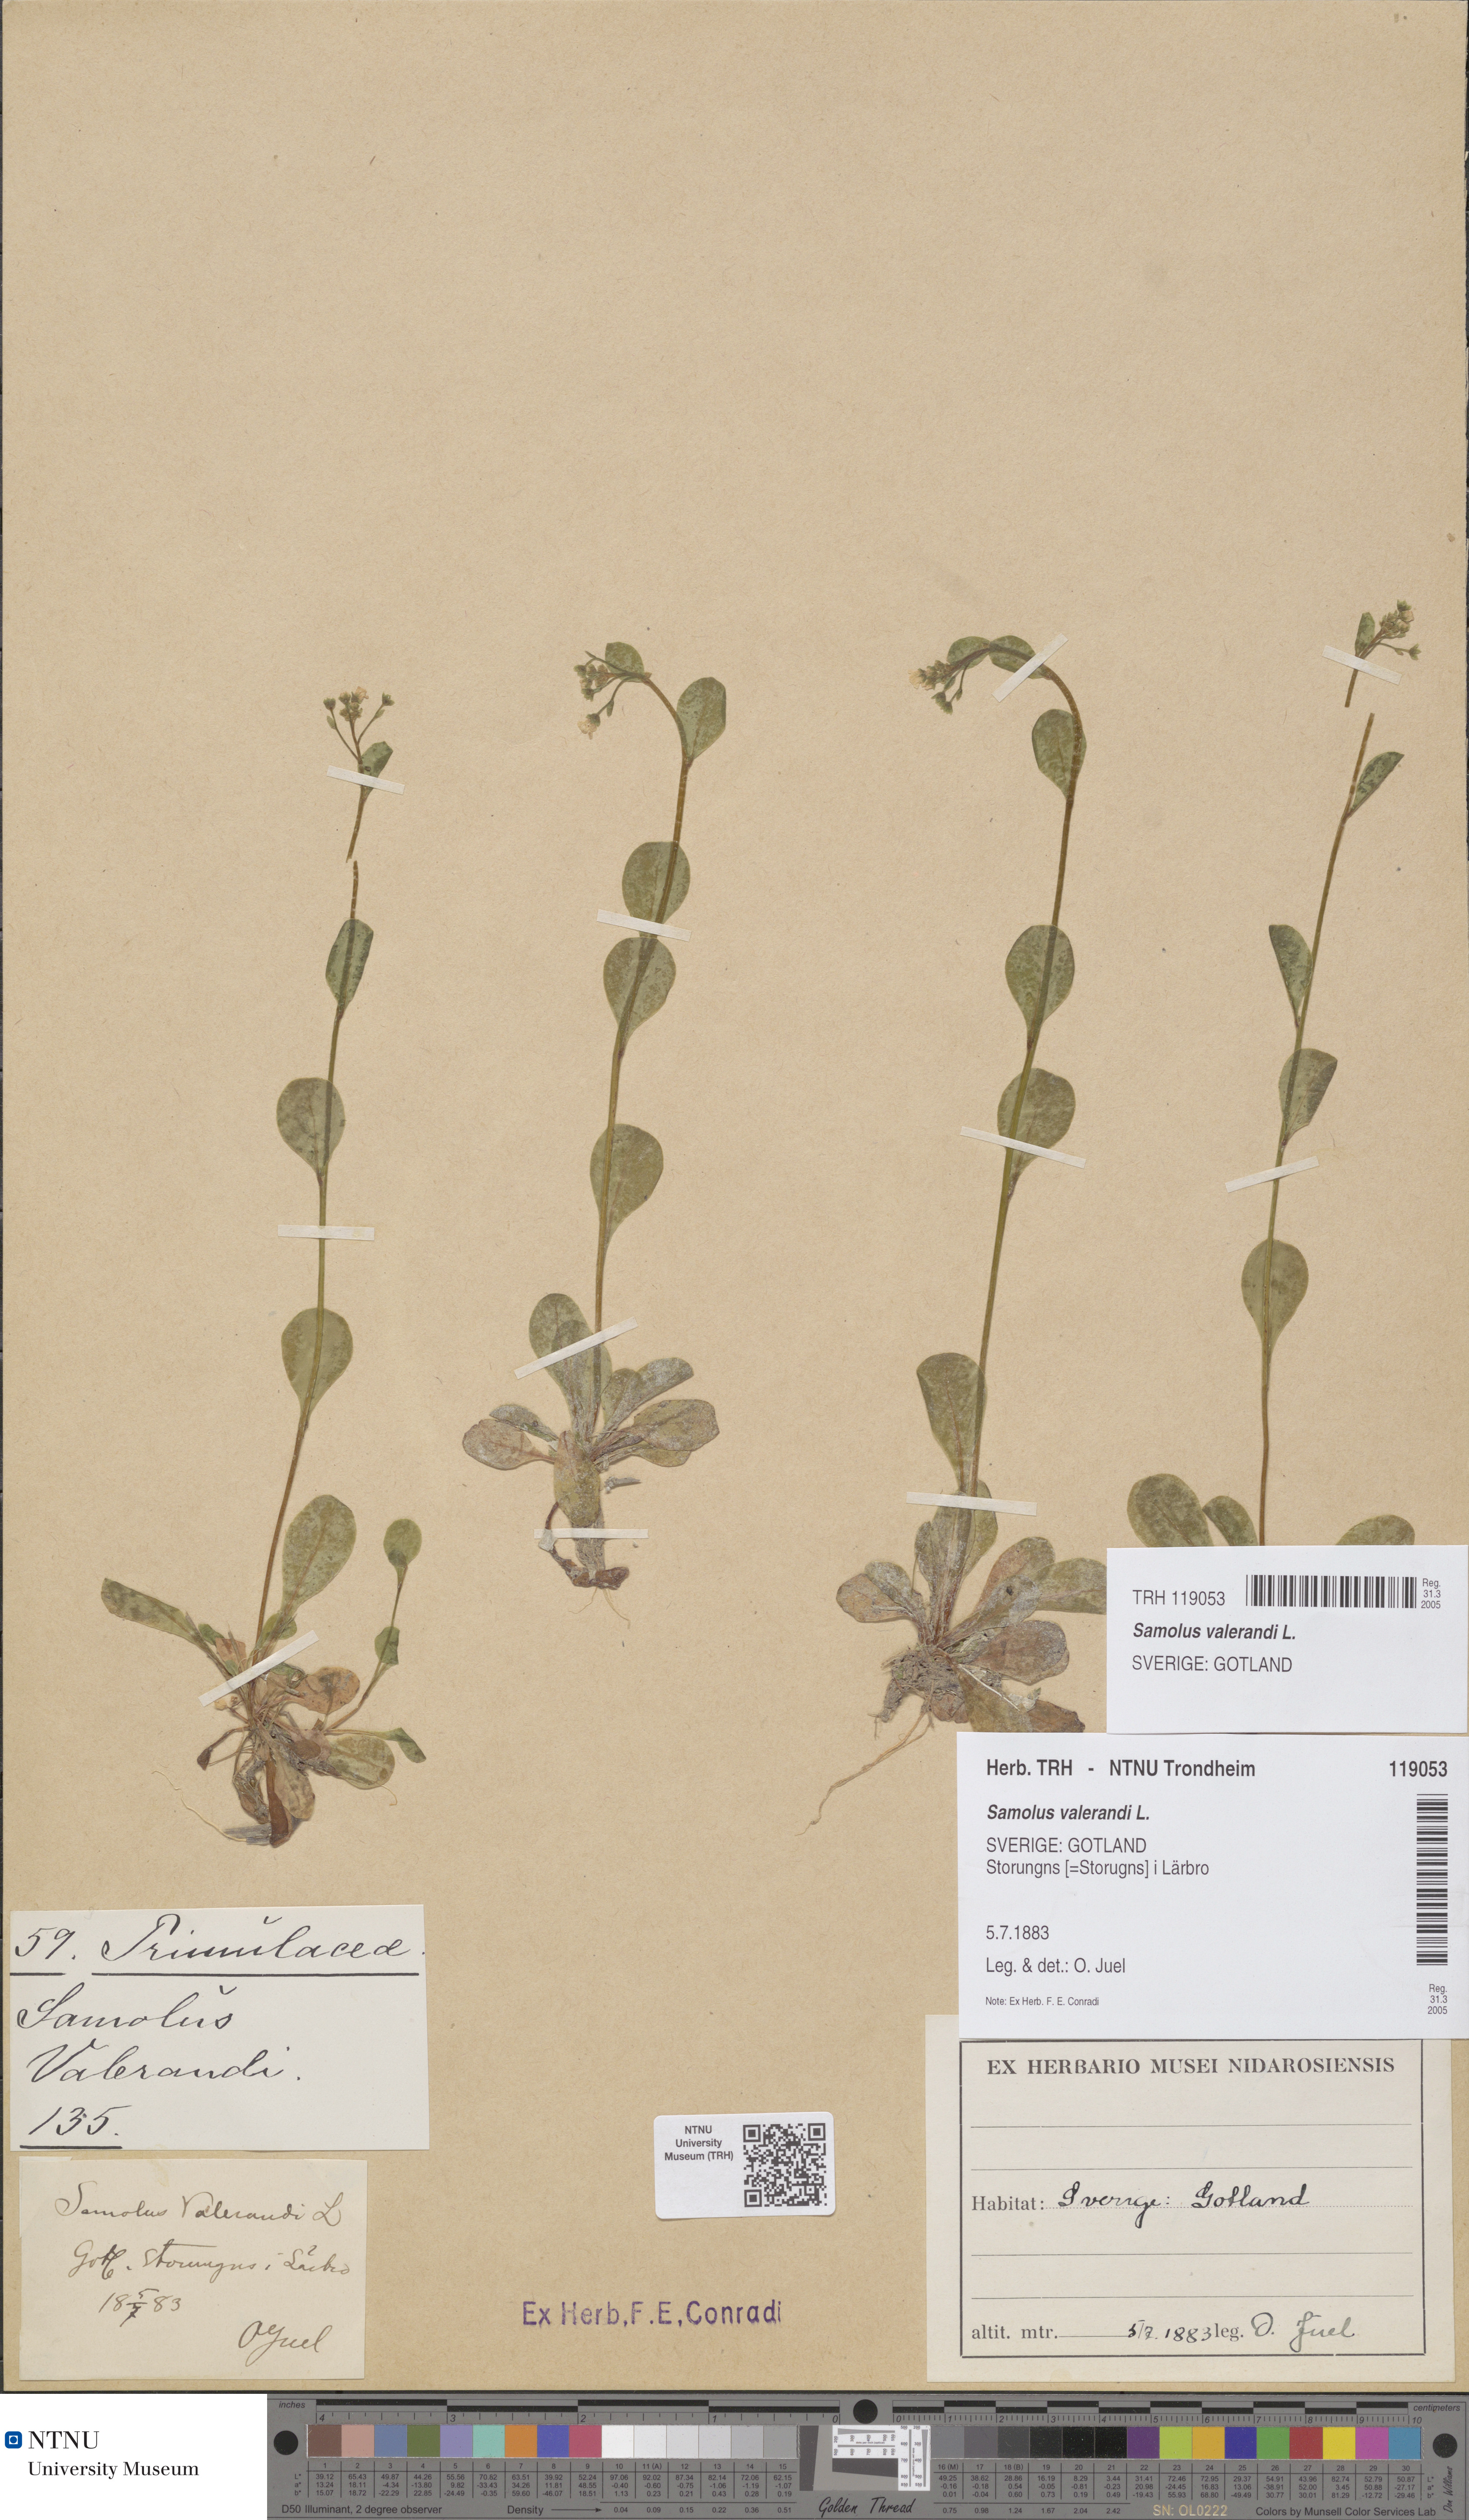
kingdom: Plantae
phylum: Tracheophyta
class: Magnoliopsida
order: Ericales
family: Primulaceae
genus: Samolus
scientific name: Samolus valerandi
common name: Brookweed
